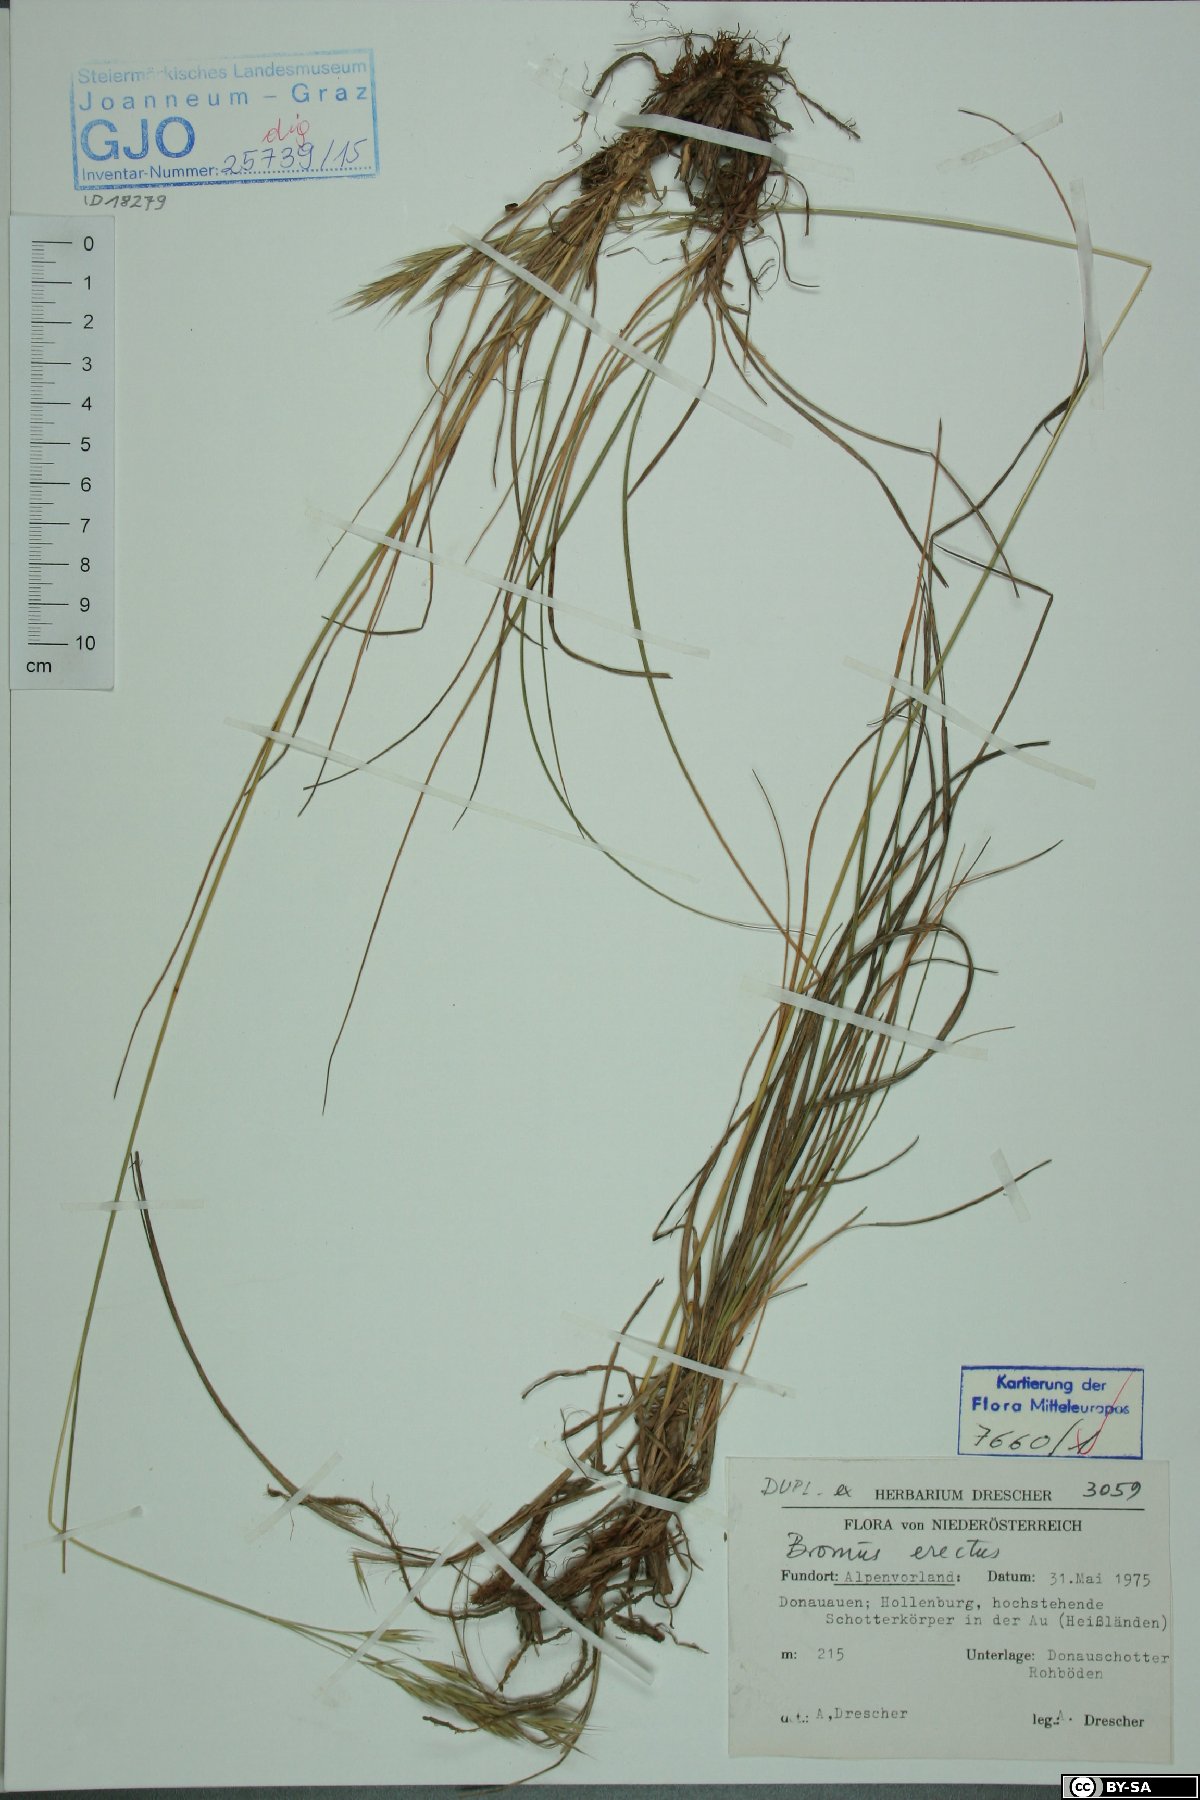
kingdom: Plantae
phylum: Tracheophyta
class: Liliopsida
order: Poales
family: Poaceae
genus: Bromus
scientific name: Bromus erectus
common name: Erect brome
